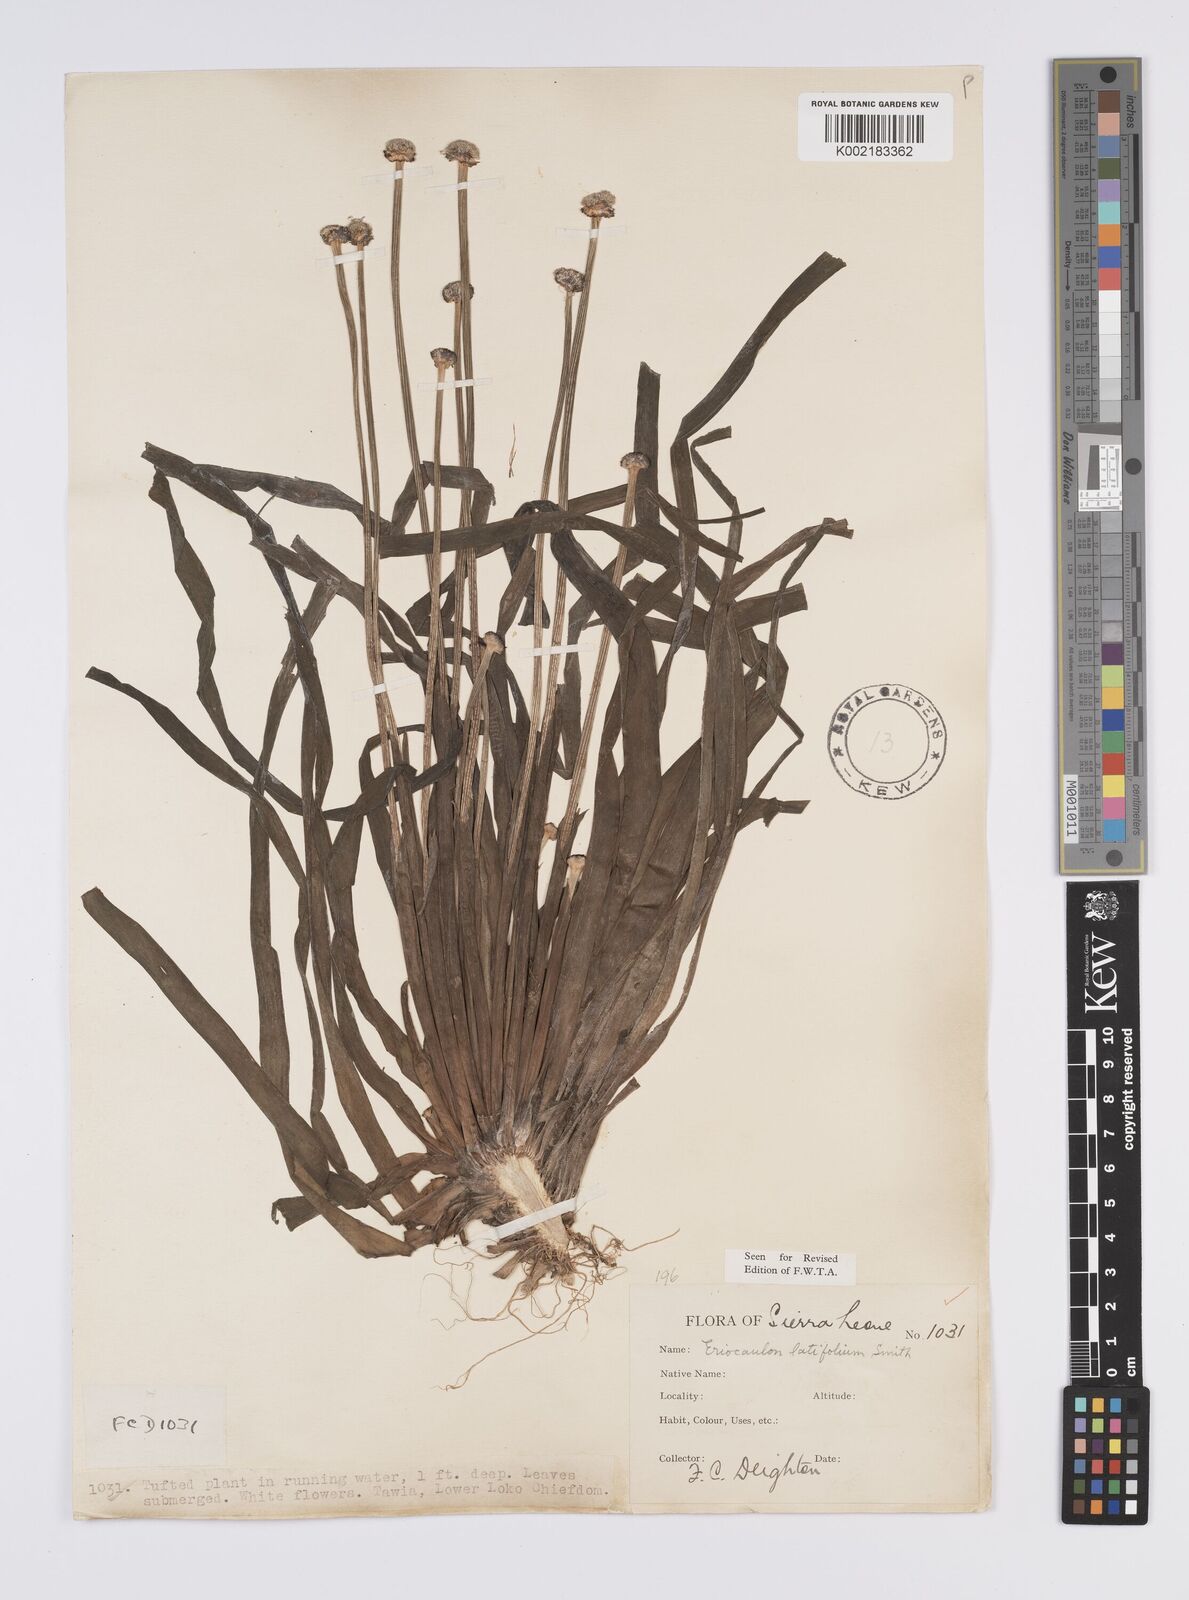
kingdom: Plantae
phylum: Tracheophyta
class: Liliopsida
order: Poales
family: Eriocaulaceae
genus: Eriocaulon
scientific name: Eriocaulon latifolium
